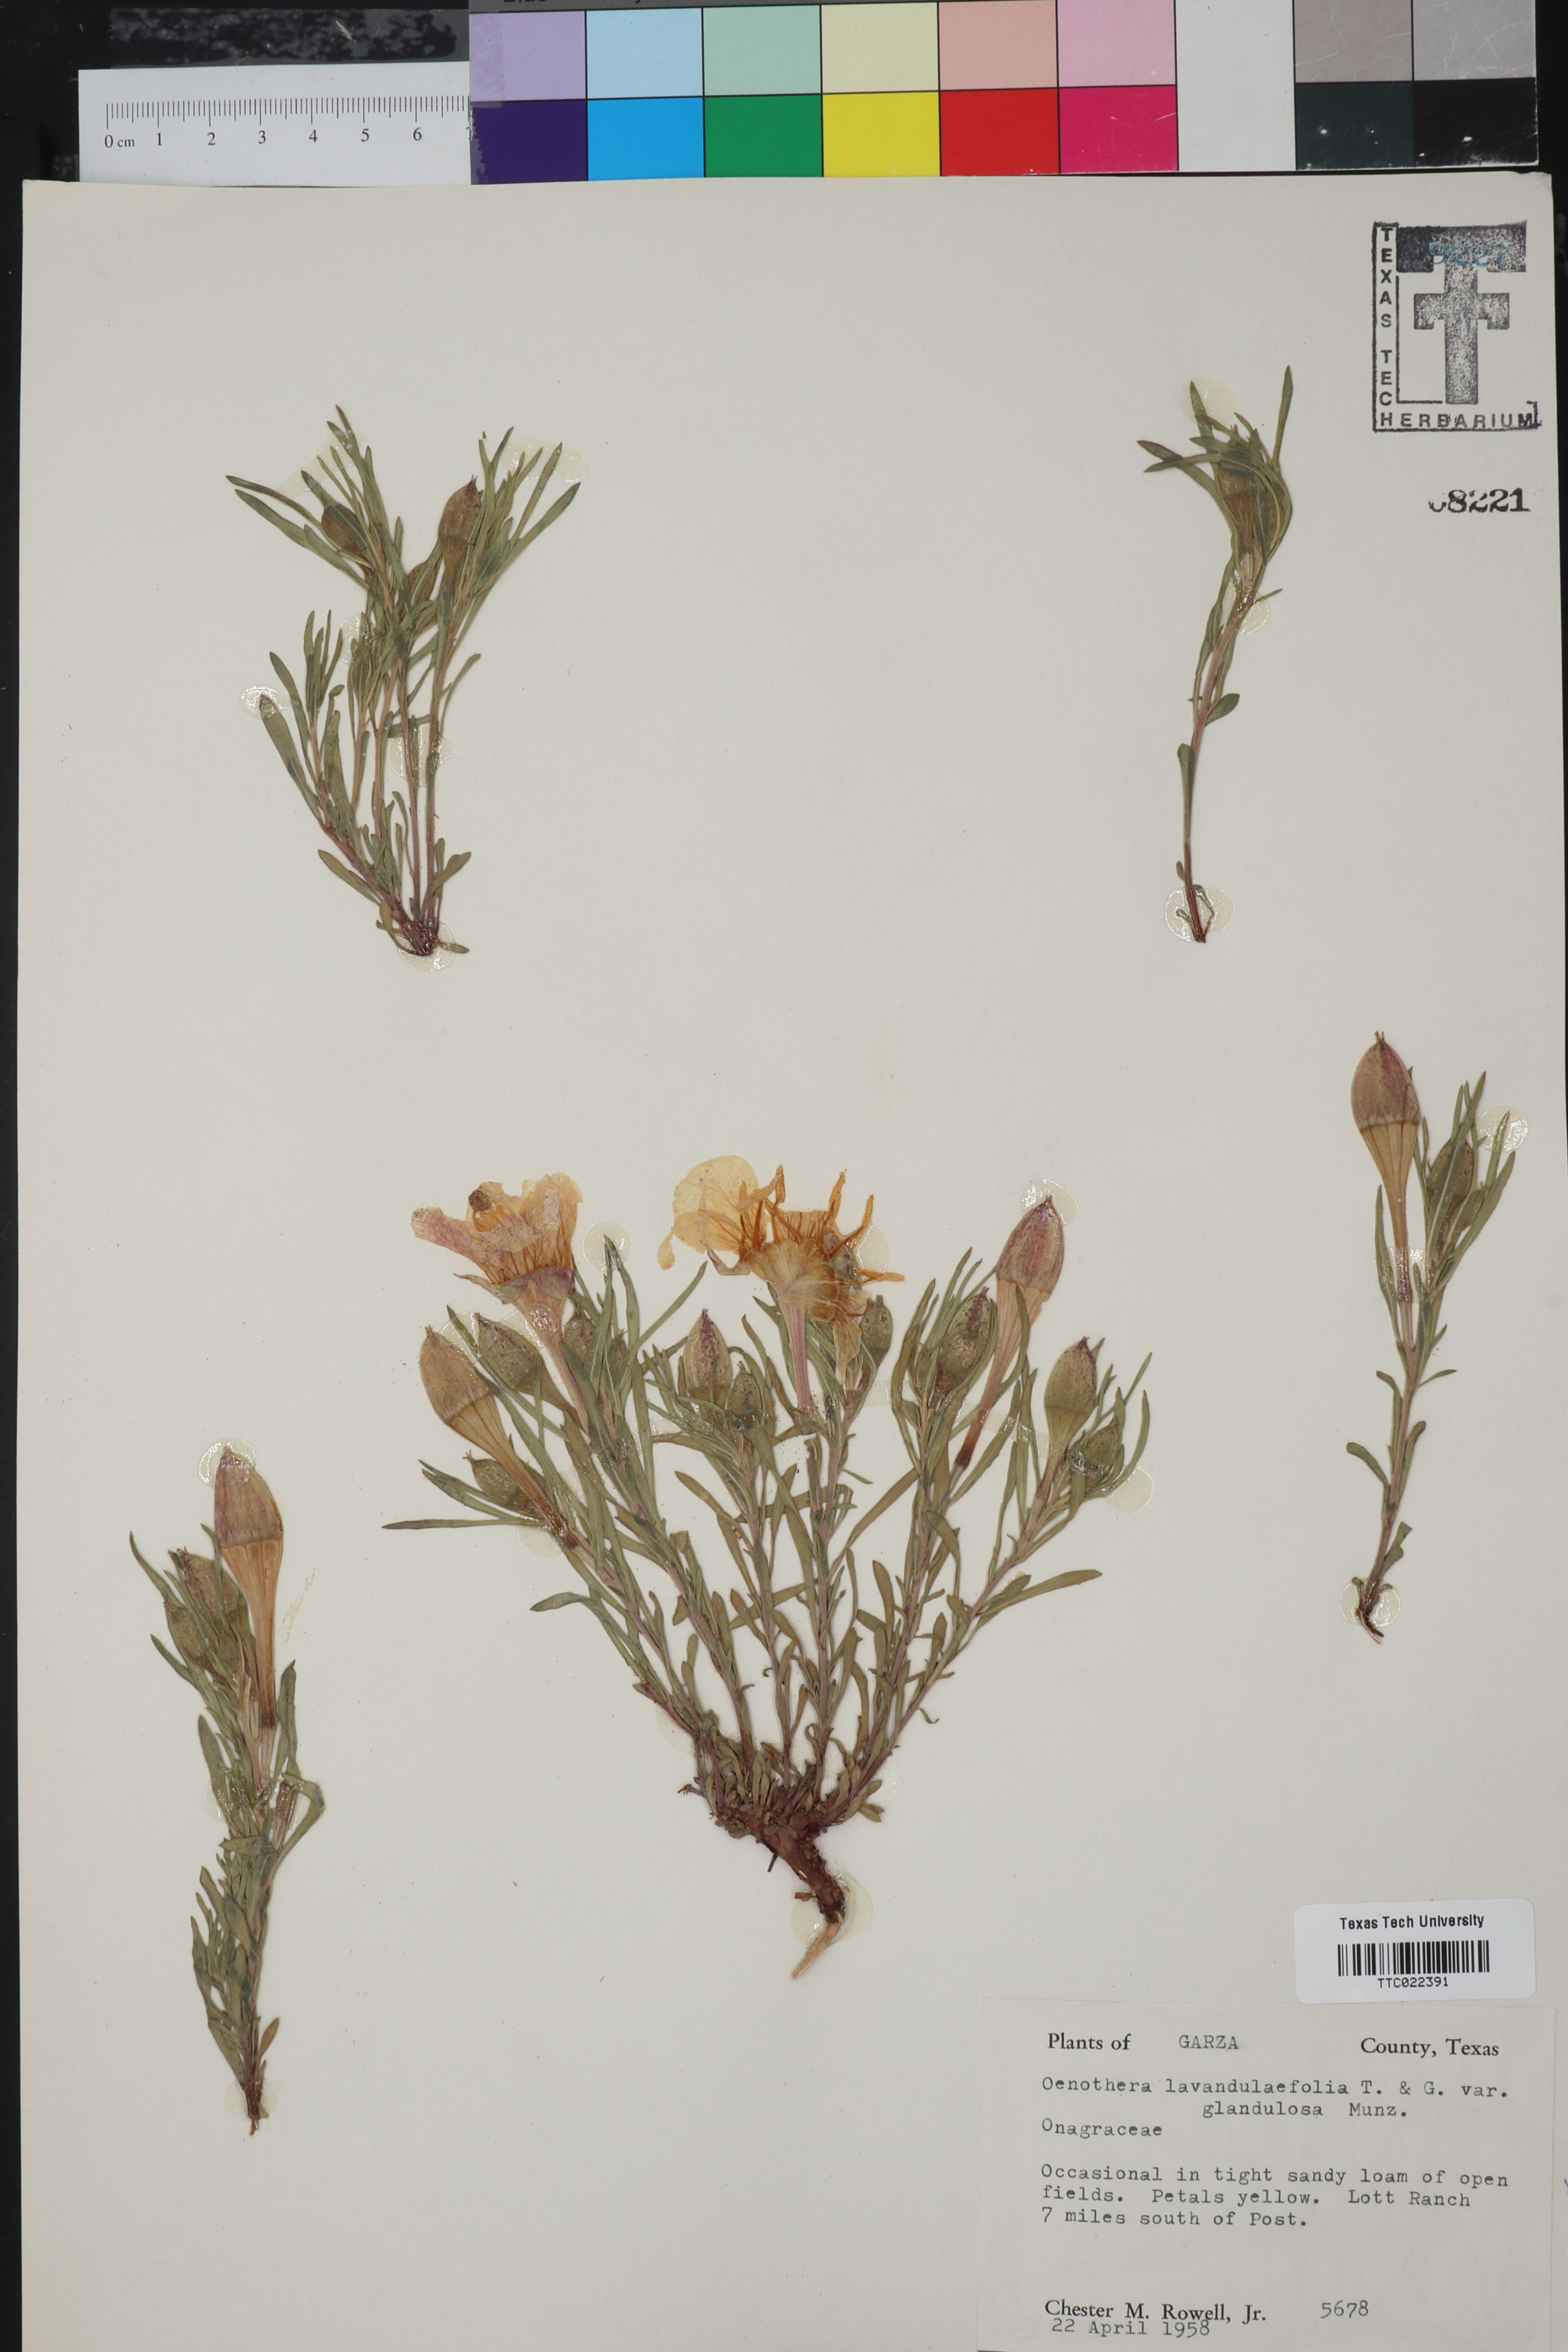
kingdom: Plantae
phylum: Tracheophyta
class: Magnoliopsida
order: Myrtales
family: Onagraceae
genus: Oenothera
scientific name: Oenothera lavandulifolia
